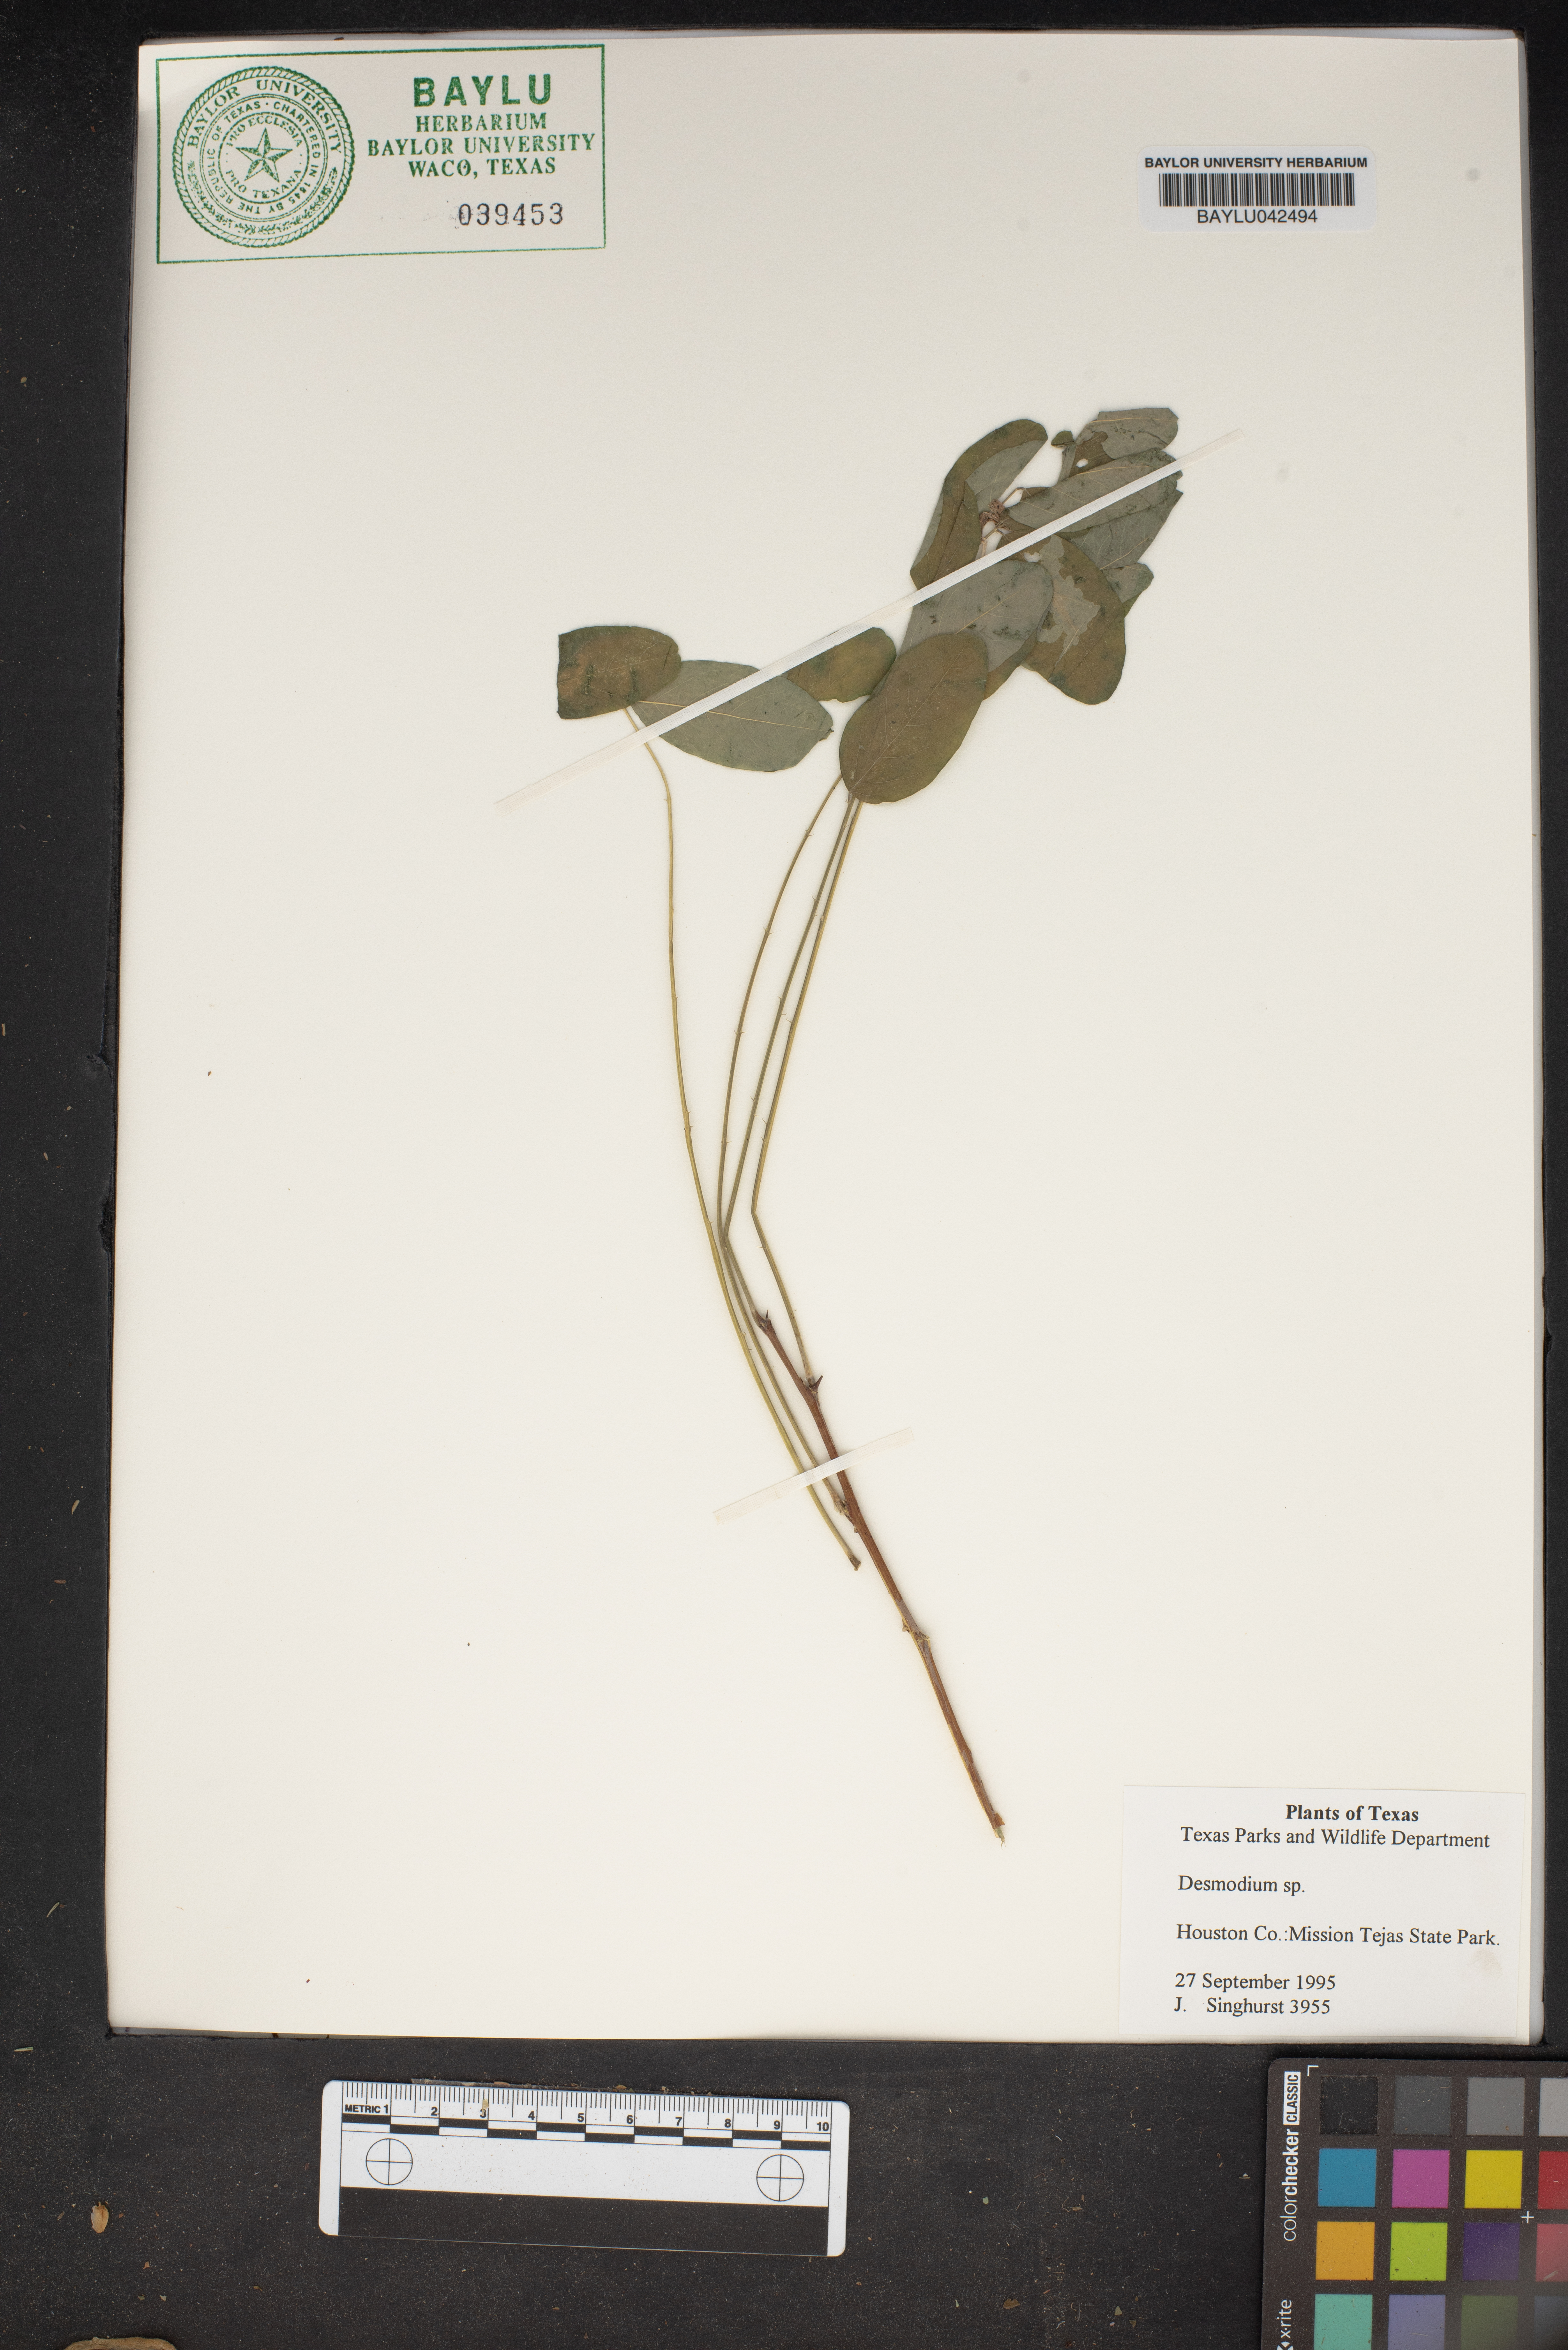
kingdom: Plantae
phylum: Tracheophyta
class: Magnoliopsida
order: Fabales
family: Fabaceae
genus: Desmodium
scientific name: Desmodium
